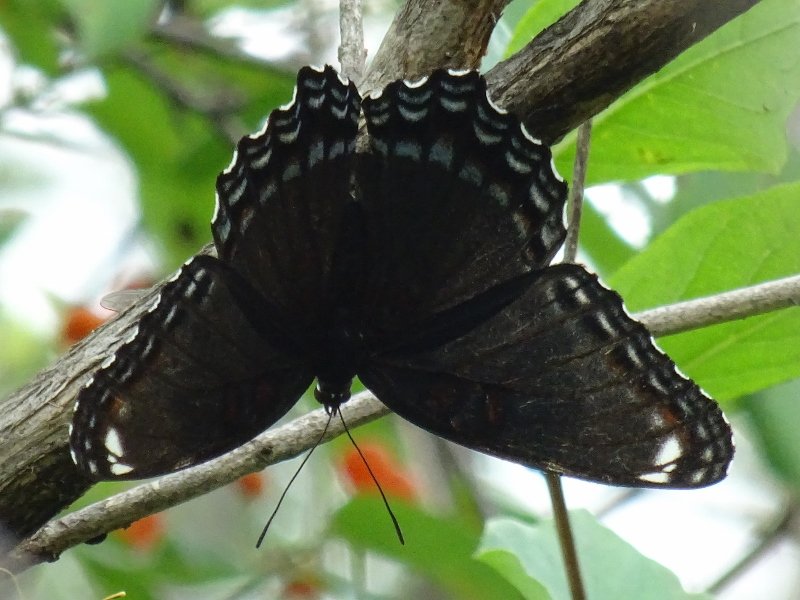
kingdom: Animalia
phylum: Arthropoda
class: Insecta
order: Lepidoptera
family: Nymphalidae
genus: Limenitis
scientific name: Limenitis astyanax
